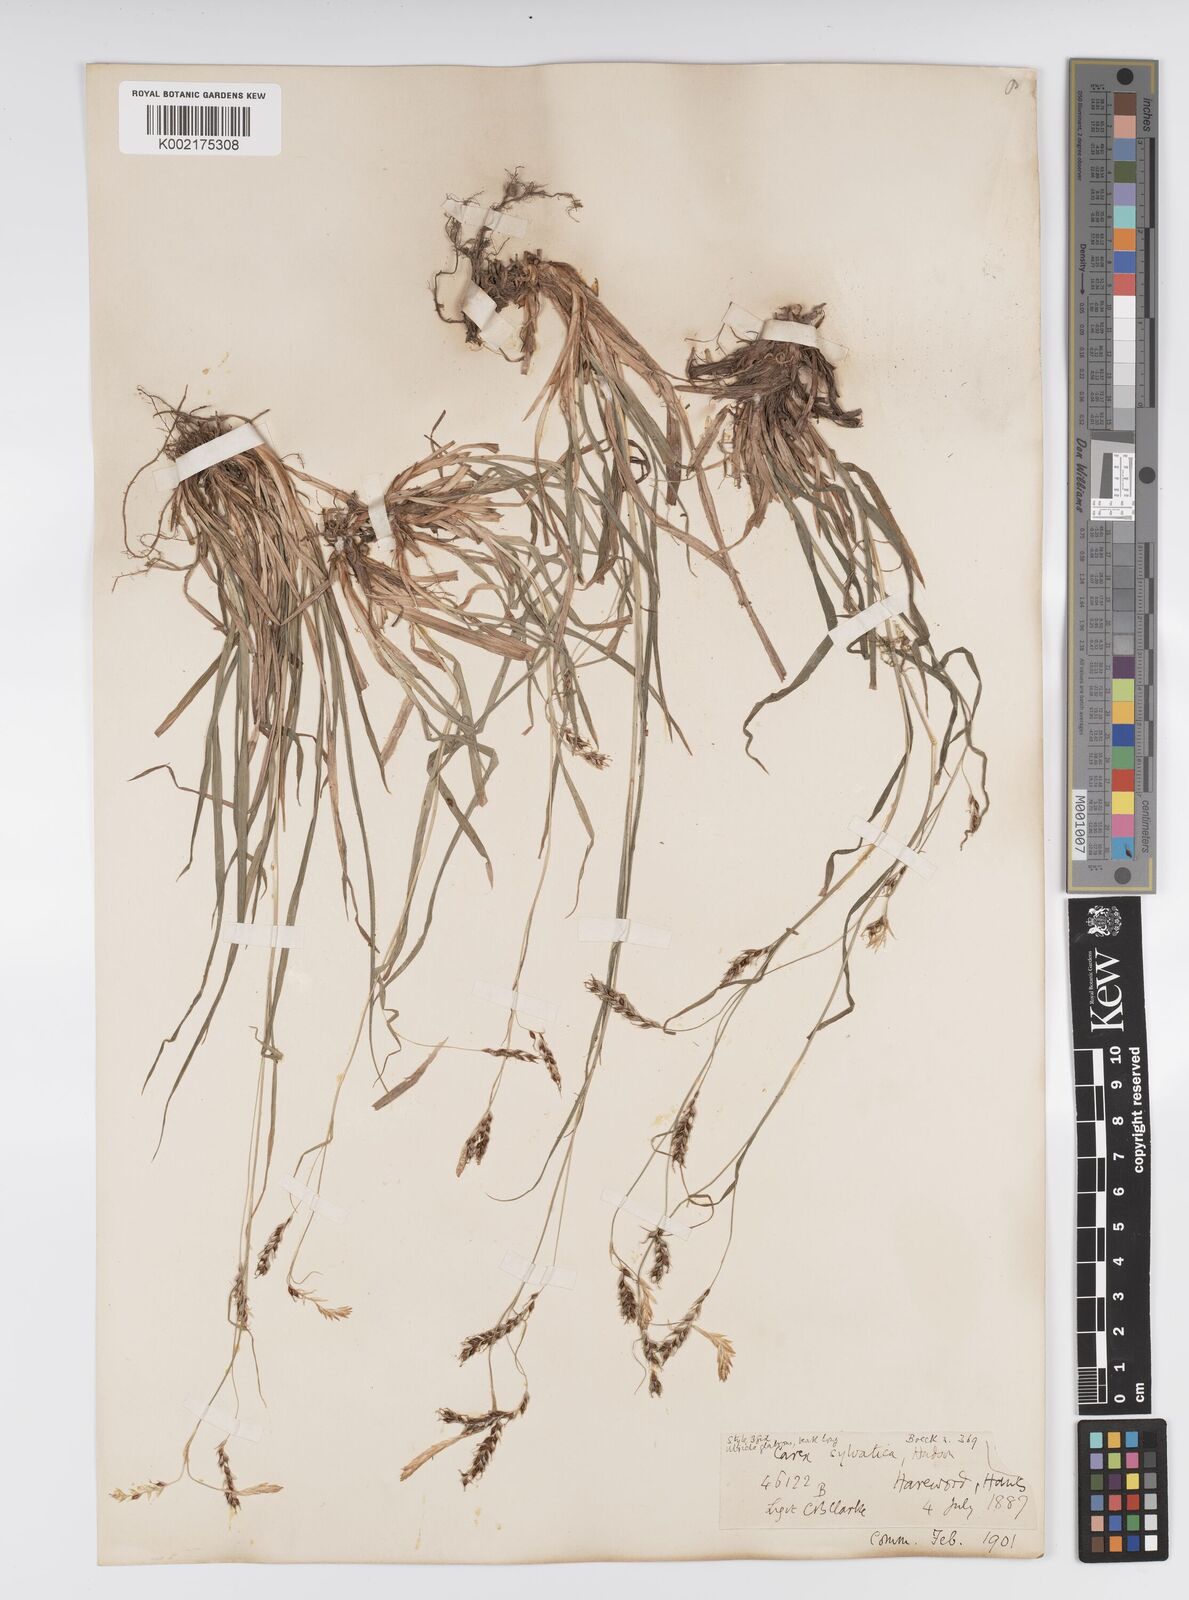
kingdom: Plantae
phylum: Tracheophyta
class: Liliopsida
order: Poales
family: Cyperaceae
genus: Carex
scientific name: Carex sylvatica
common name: Wood-sedge
